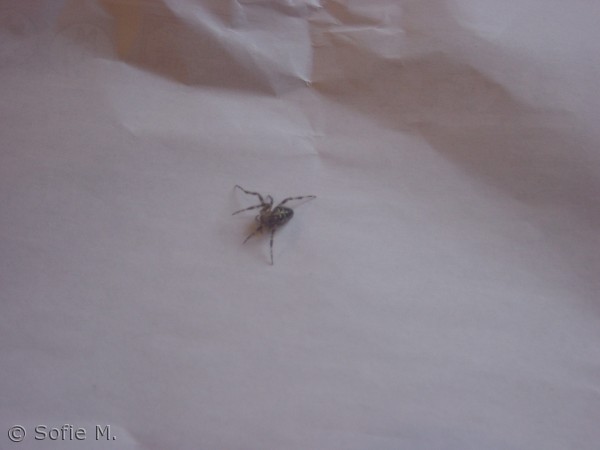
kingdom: Animalia
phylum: Arthropoda
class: Arachnida
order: Araneae
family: Araneidae
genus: Araneus
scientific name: Araneus diadematus
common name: Korsedderkop
